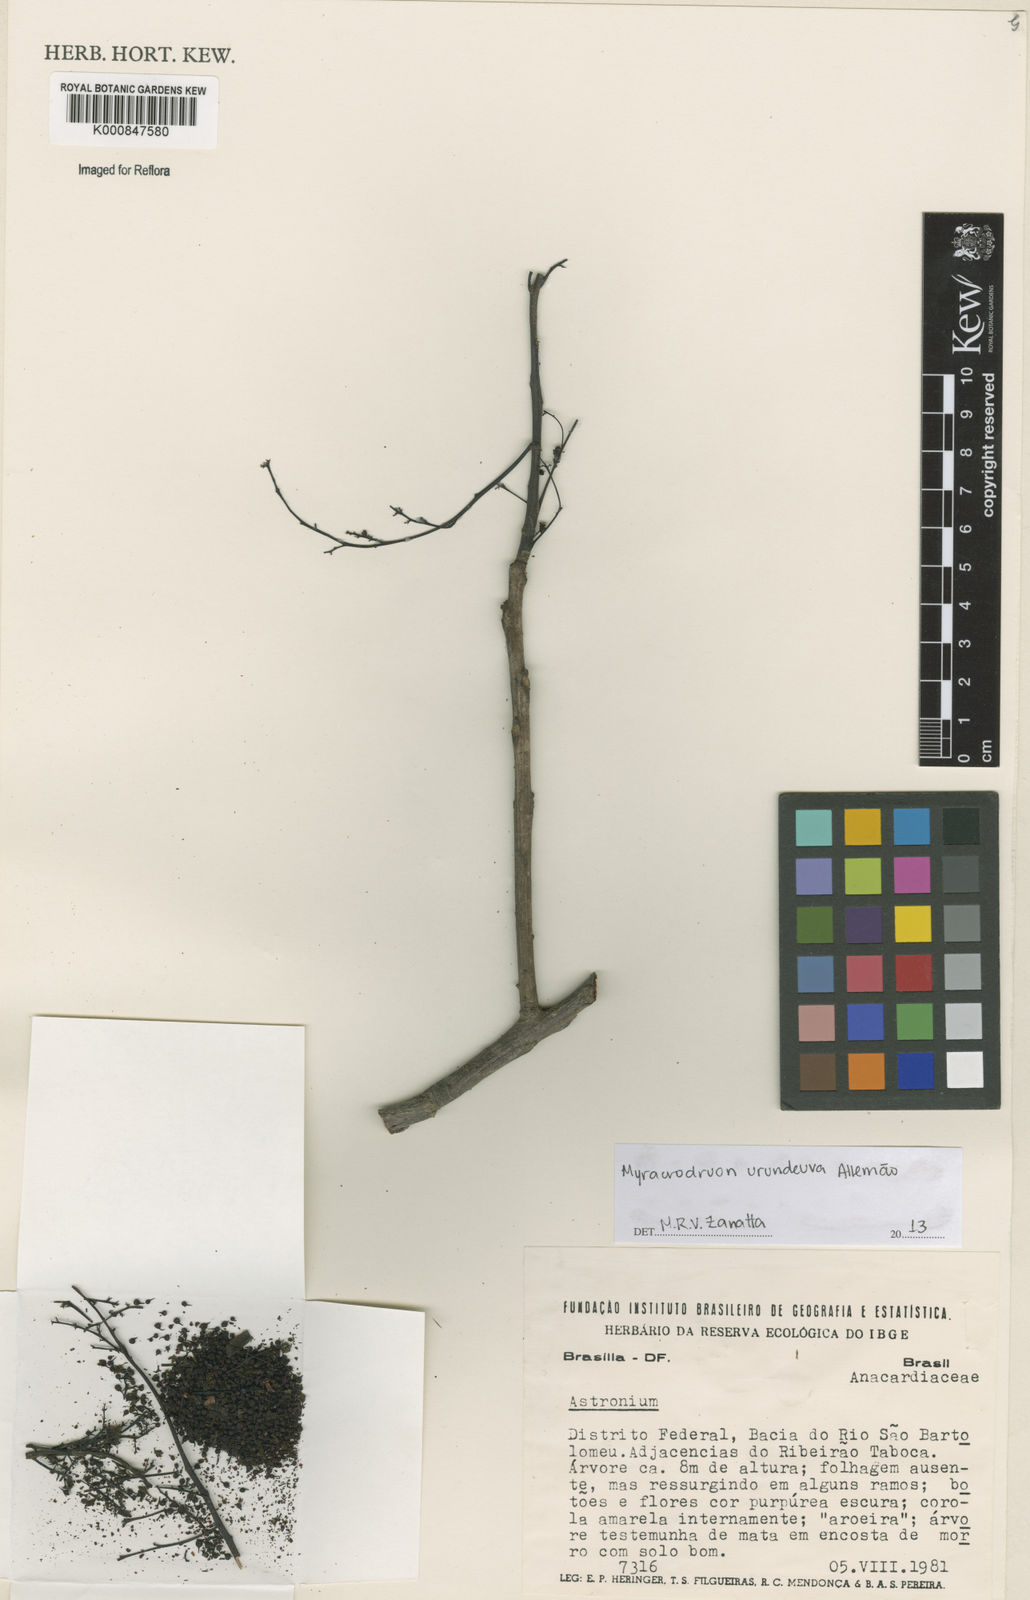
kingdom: Plantae
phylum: Tracheophyta
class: Magnoliopsida
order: Sapindales
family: Anacardiaceae
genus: Astronium
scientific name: Astronium
